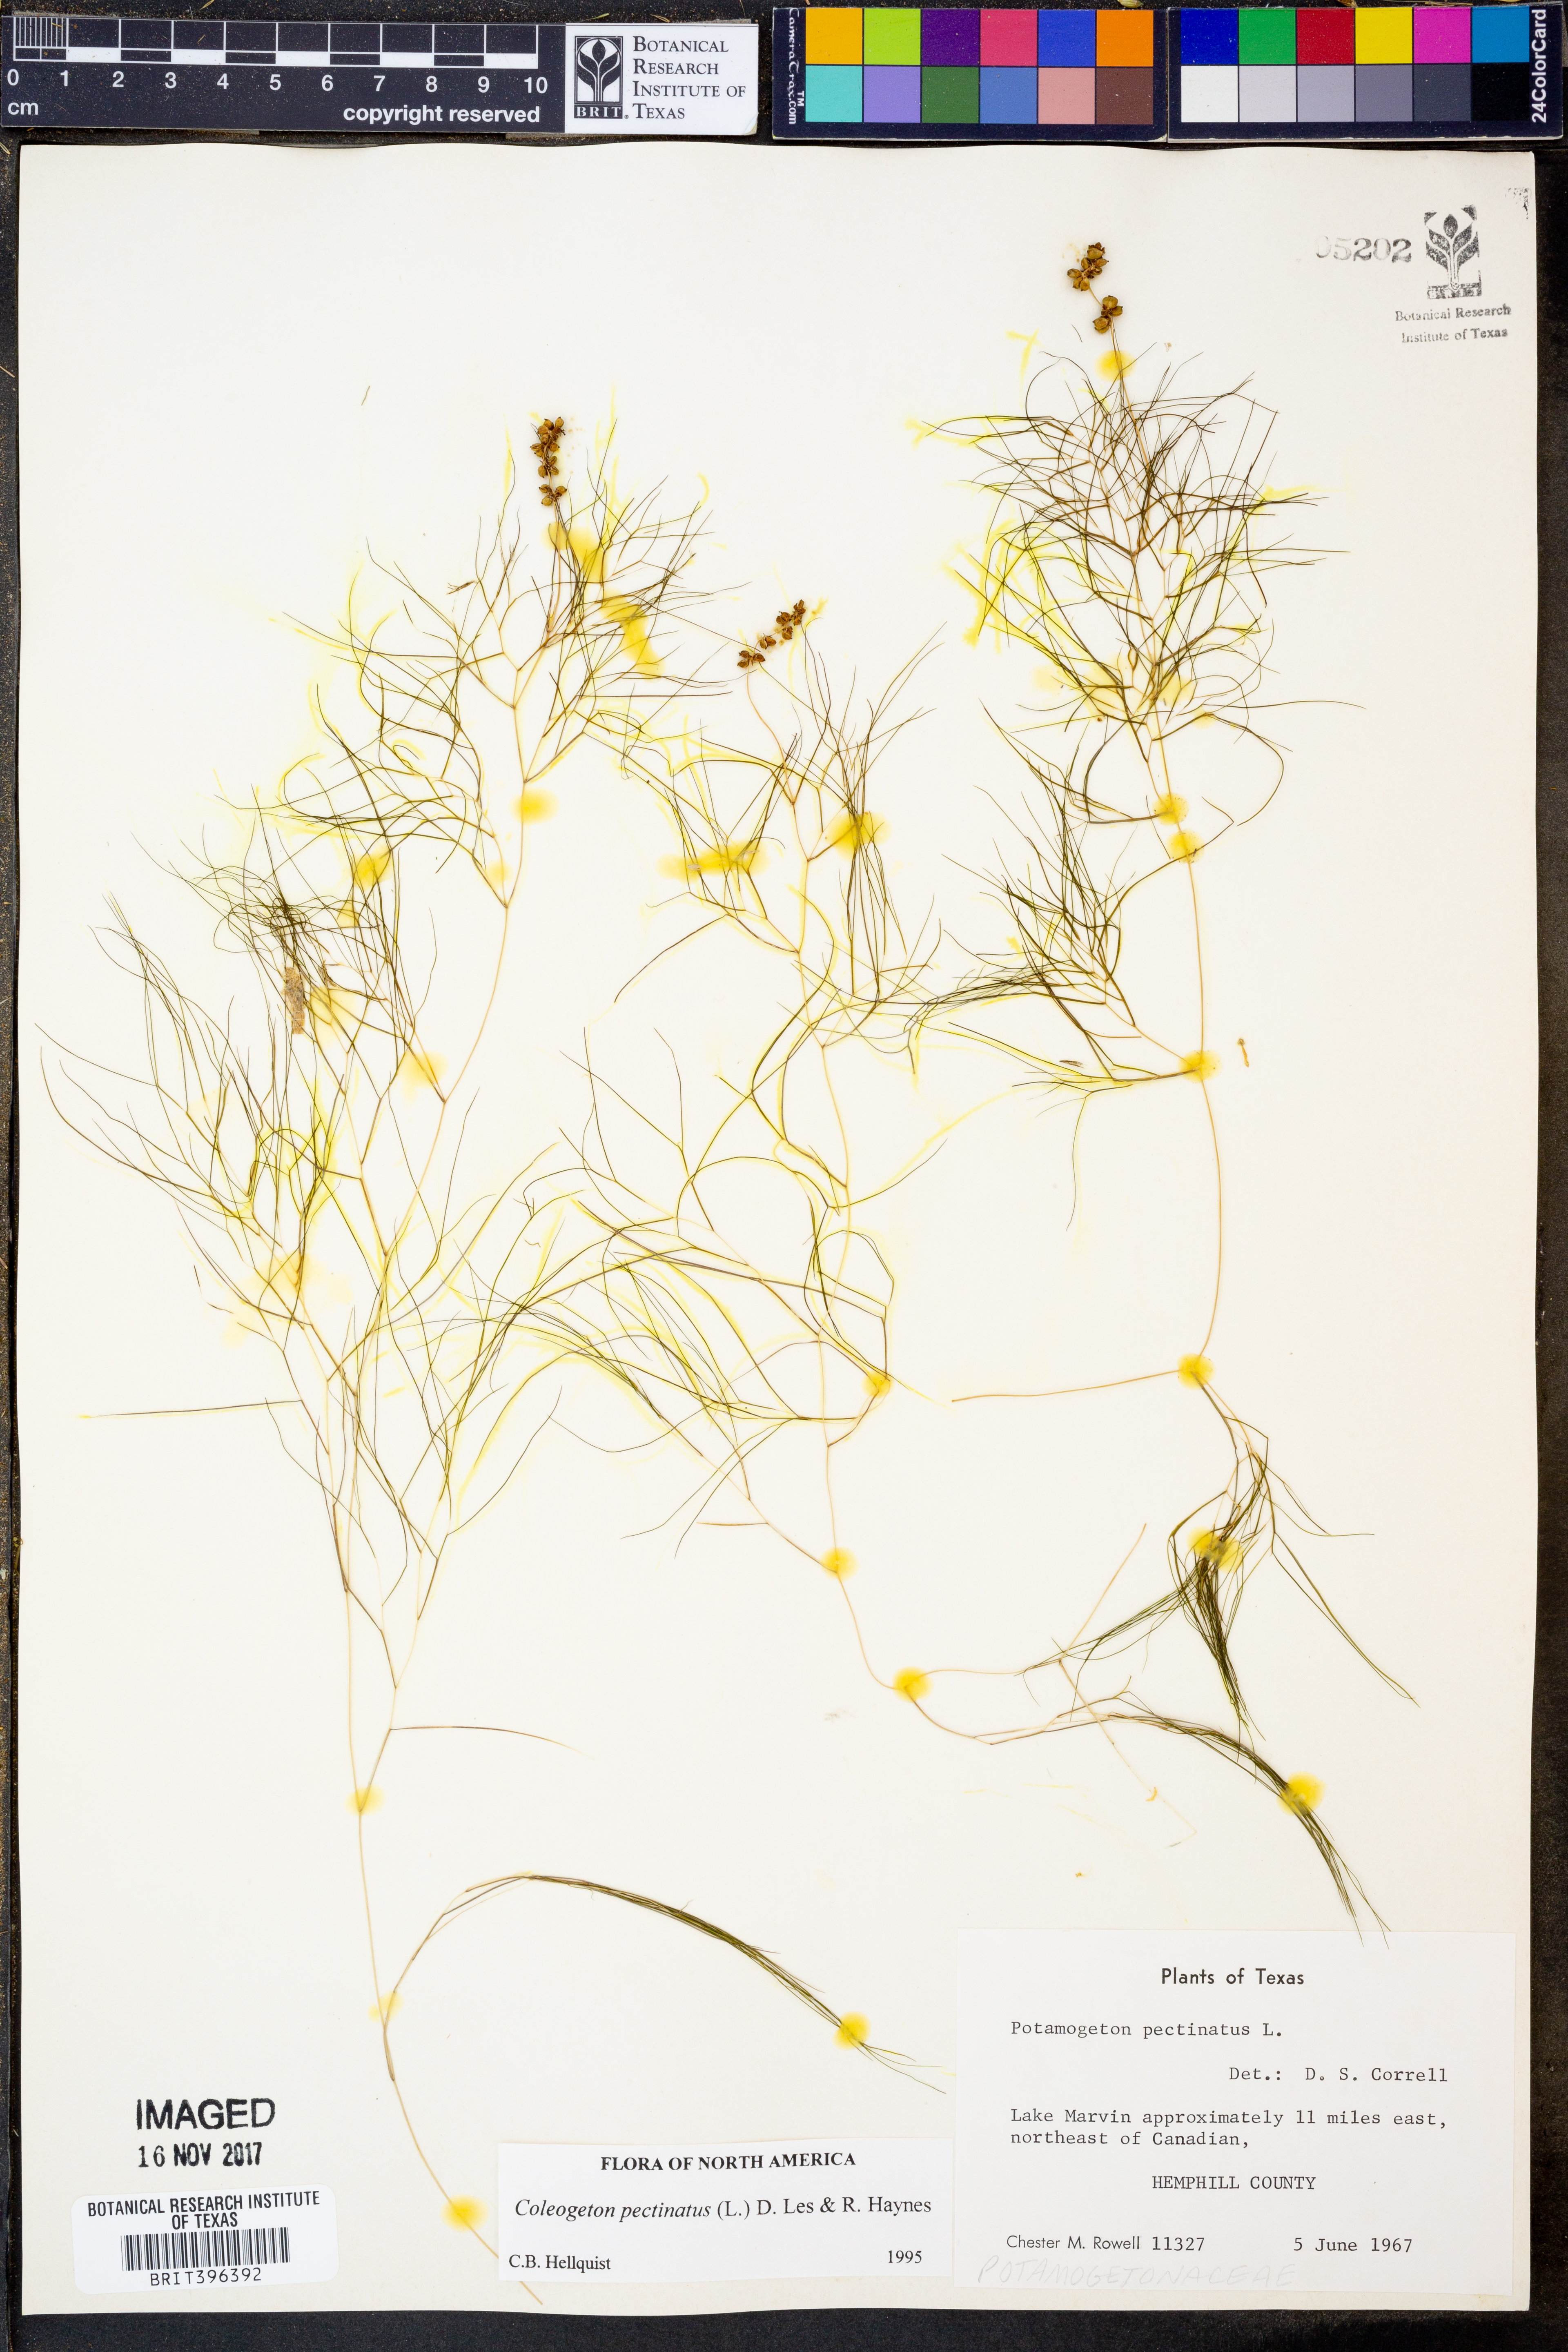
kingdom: Plantae
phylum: Tracheophyta
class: Liliopsida
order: Alismatales
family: Potamogetonaceae
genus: Stuckenia
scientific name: Stuckenia pectinata
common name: Sago pondweed
